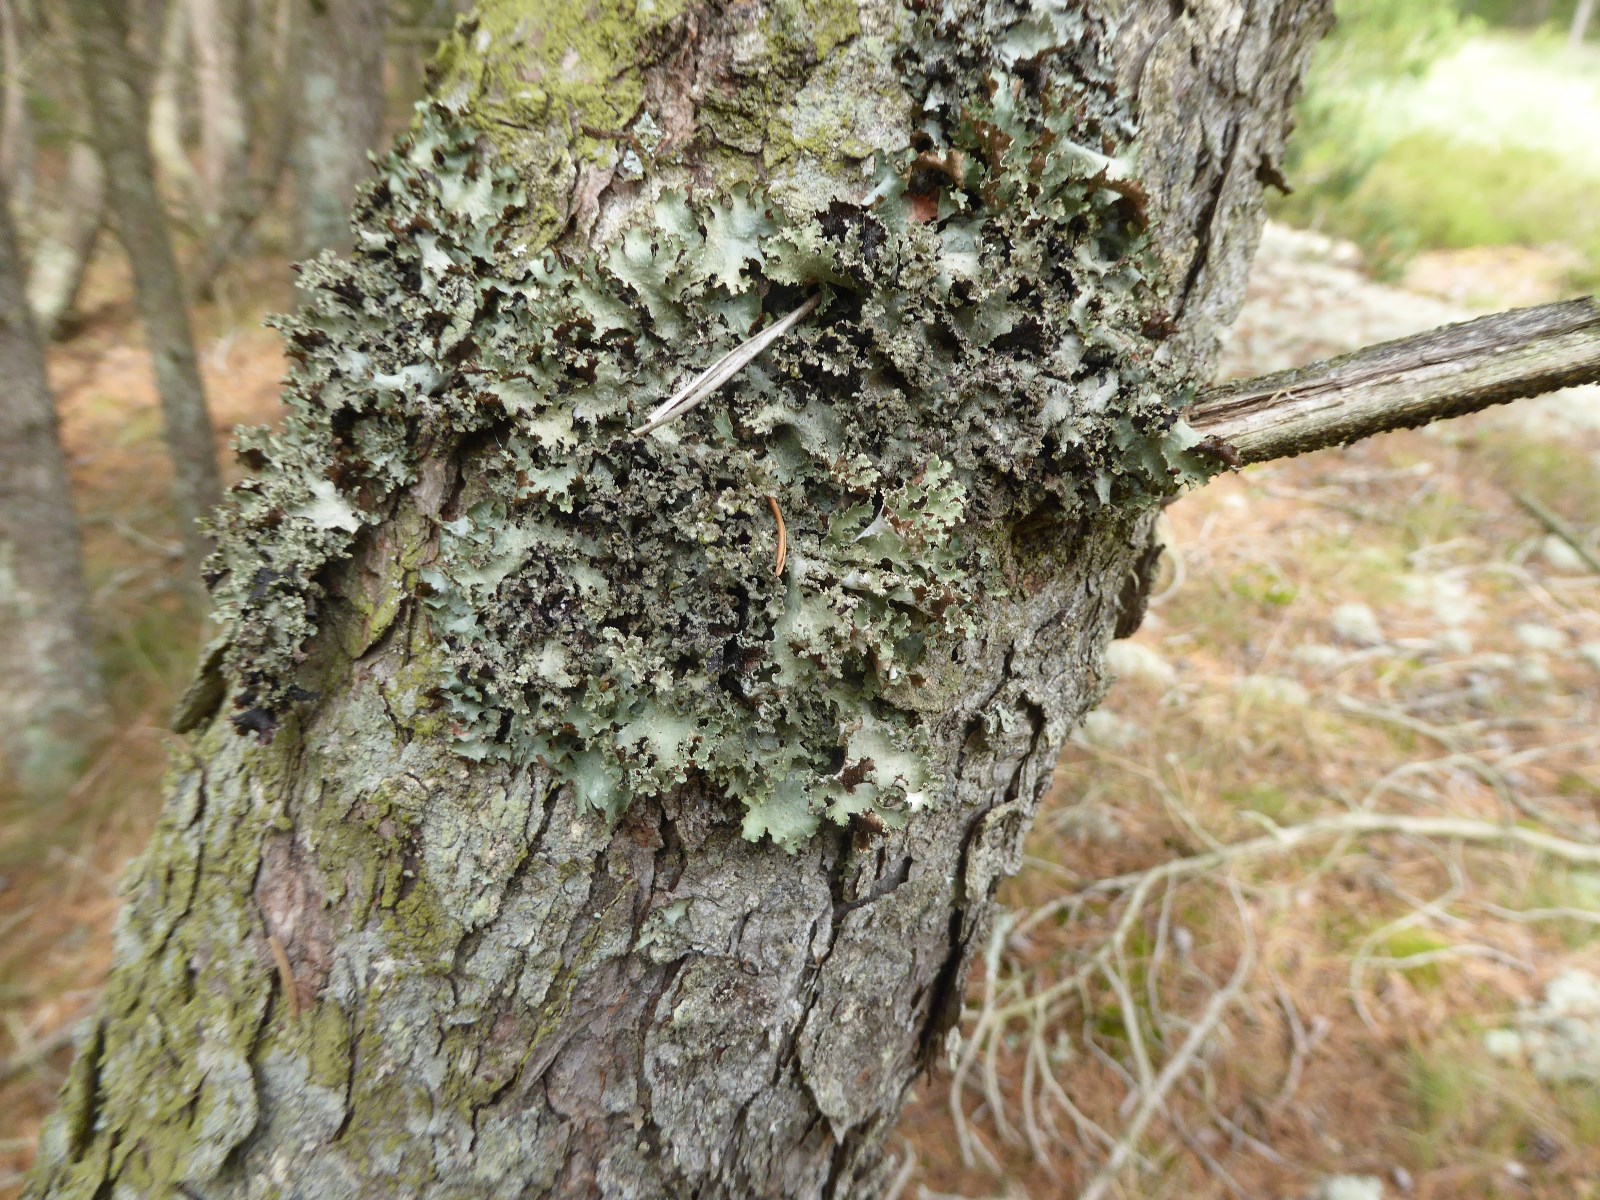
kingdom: Fungi
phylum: Ascomycota
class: Lecanoromycetes
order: Lecanorales
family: Parmeliaceae
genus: Platismatia
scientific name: Platismatia glauca
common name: blågrå papirlav
